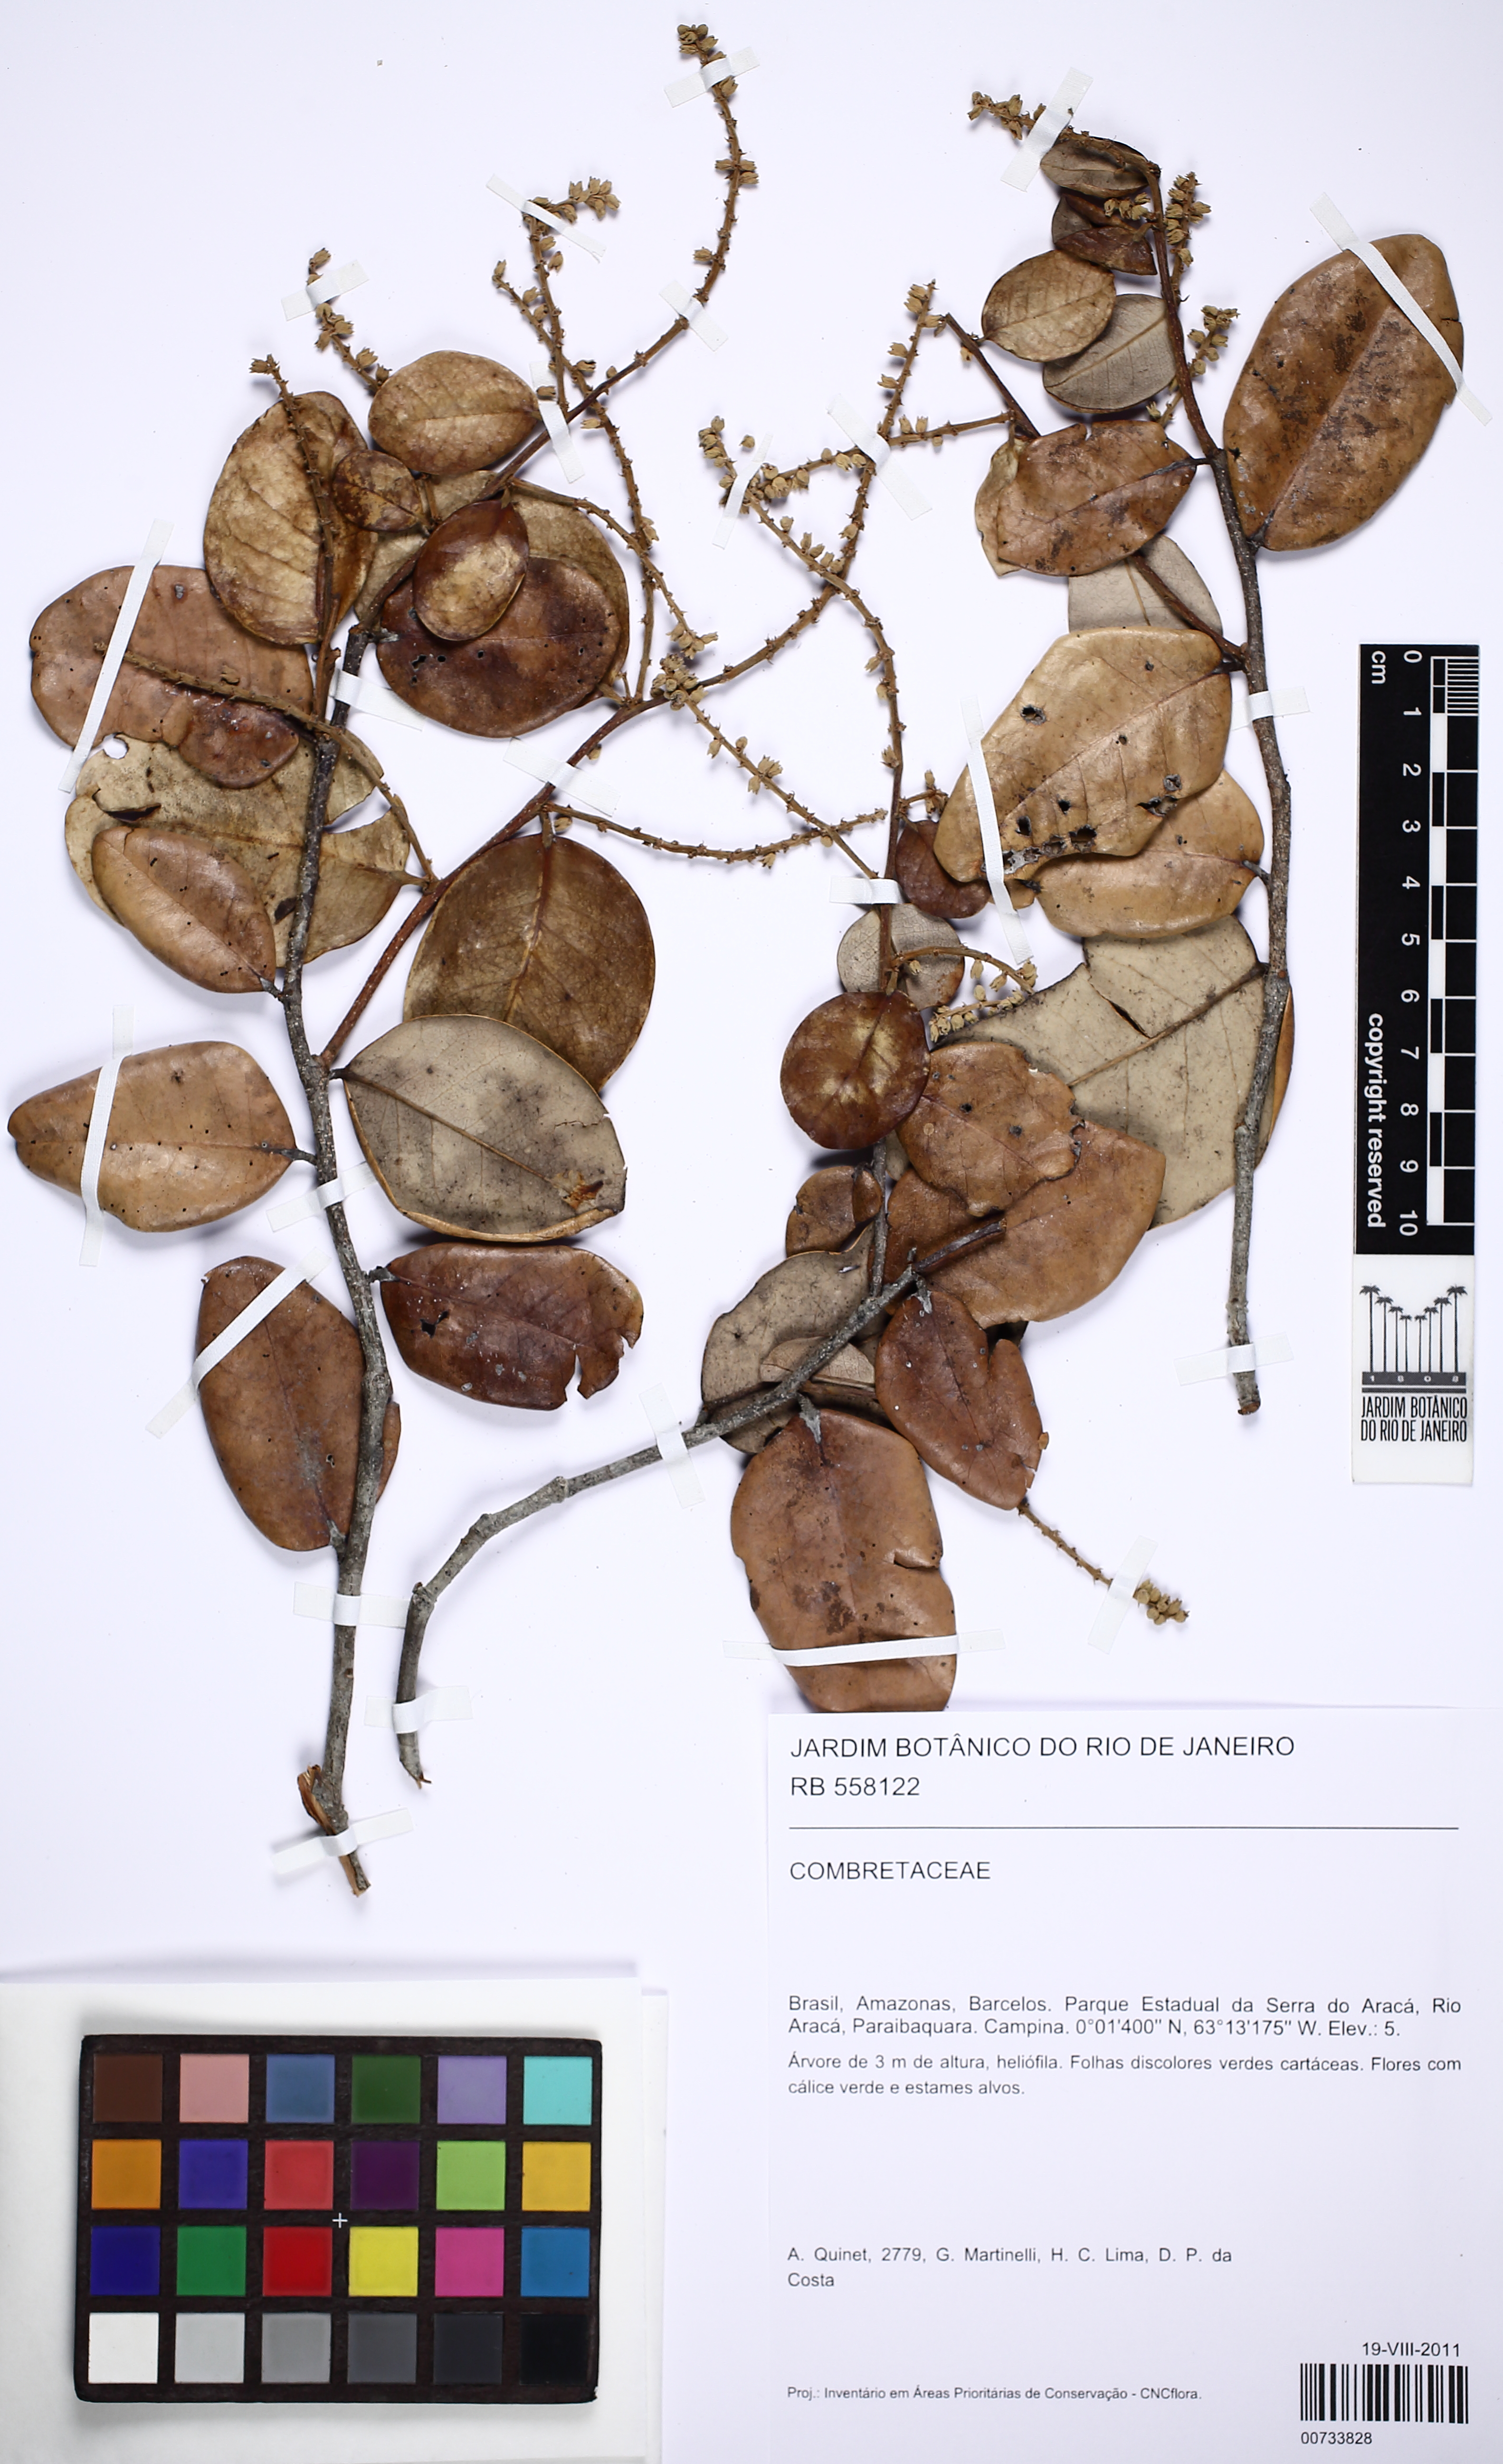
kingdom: Plantae
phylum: Tracheophyta
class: Magnoliopsida
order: Myrtales
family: Combretaceae
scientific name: Combretaceae
